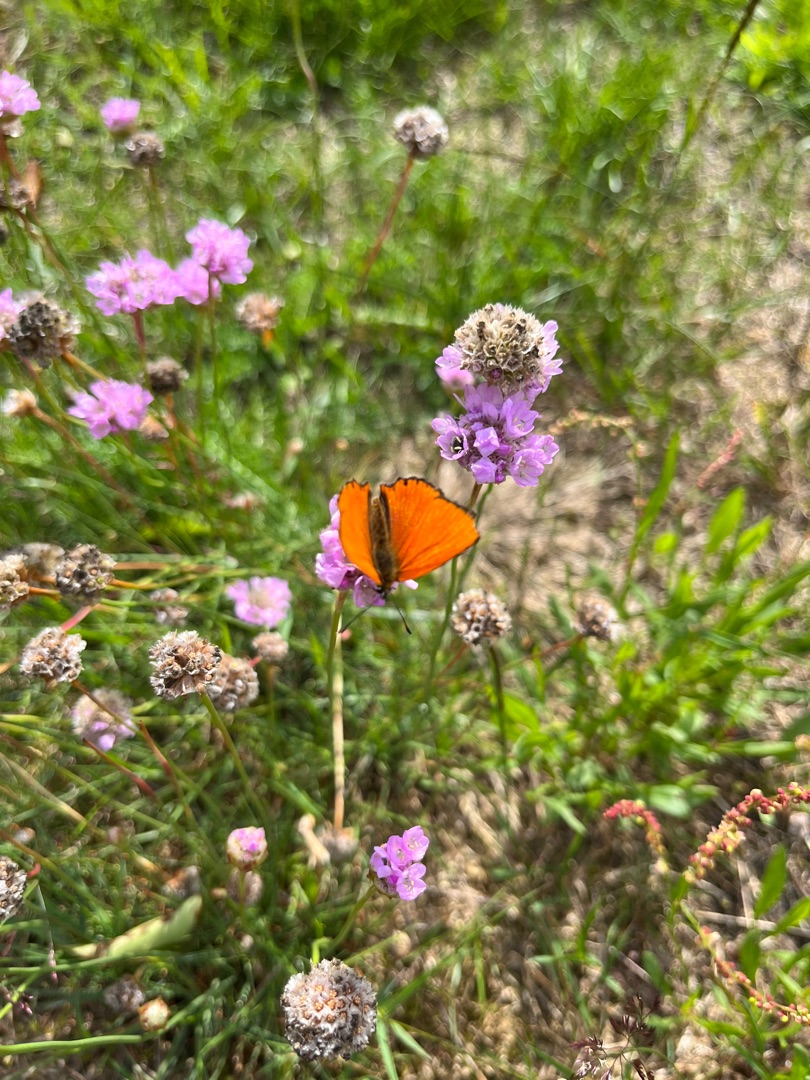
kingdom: Animalia
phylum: Arthropoda
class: Insecta
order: Lepidoptera
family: Lycaenidae
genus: Lycaena
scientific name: Lycaena virgaureae
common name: Dukatsommerfugl
